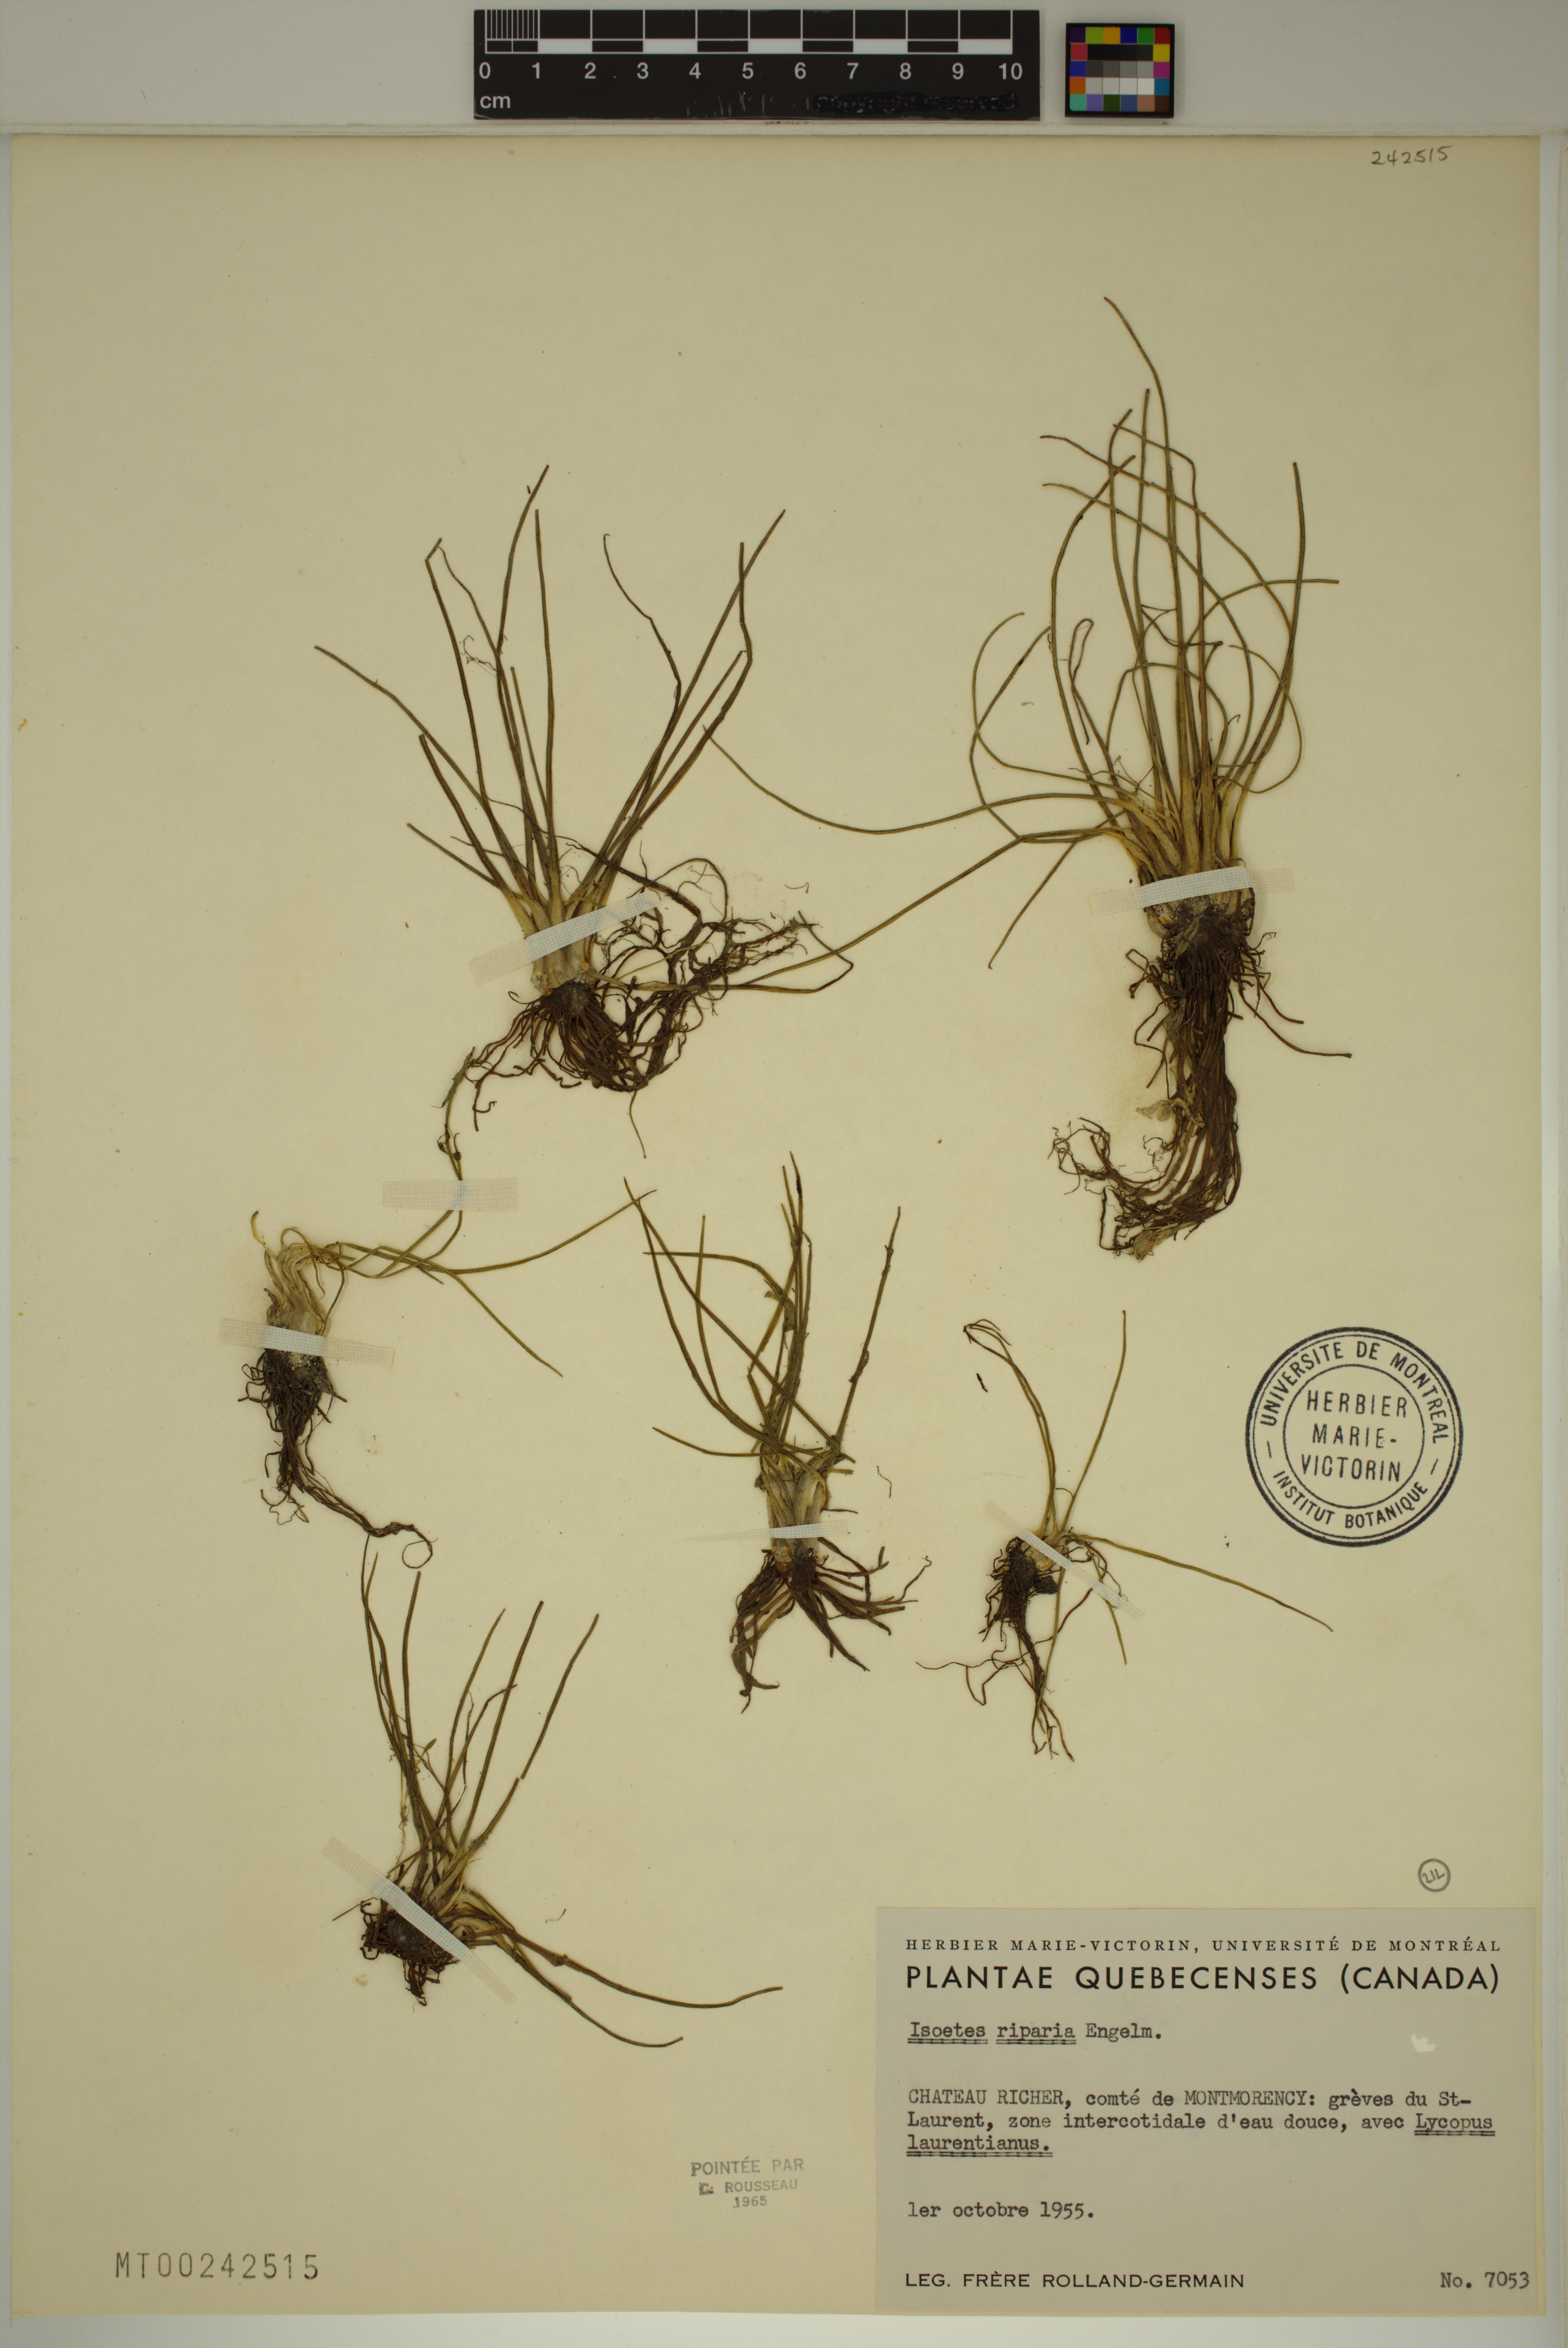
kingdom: Plantae
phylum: Tracheophyta
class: Lycopodiopsida
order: Isoetales
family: Isoetaceae
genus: Isoetes
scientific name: Isoetes laurentiana
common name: St. lawrence quillwort
